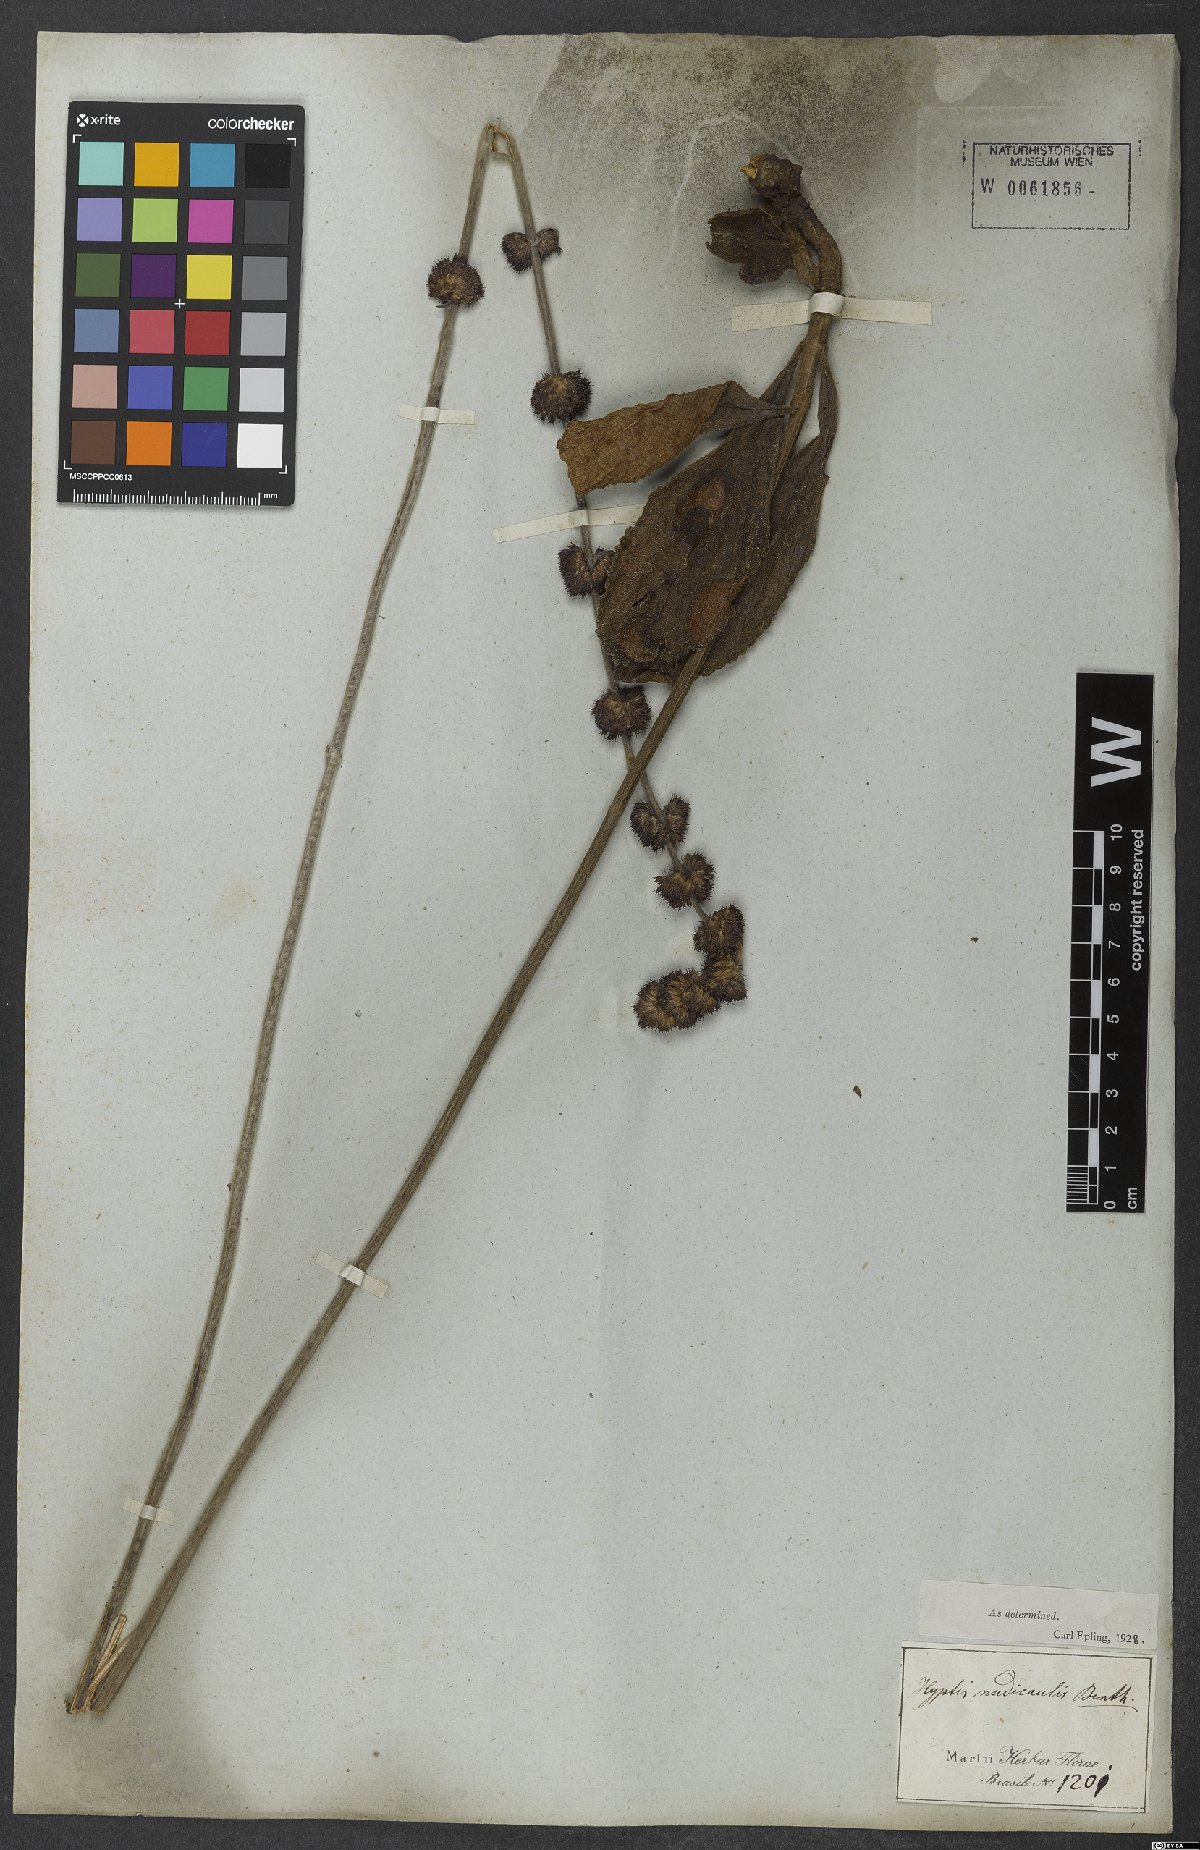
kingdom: Plantae
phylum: Tracheophyta
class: Magnoliopsida
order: Lamiales
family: Lamiaceae
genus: Hyptis
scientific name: Hyptis nudicaulis
